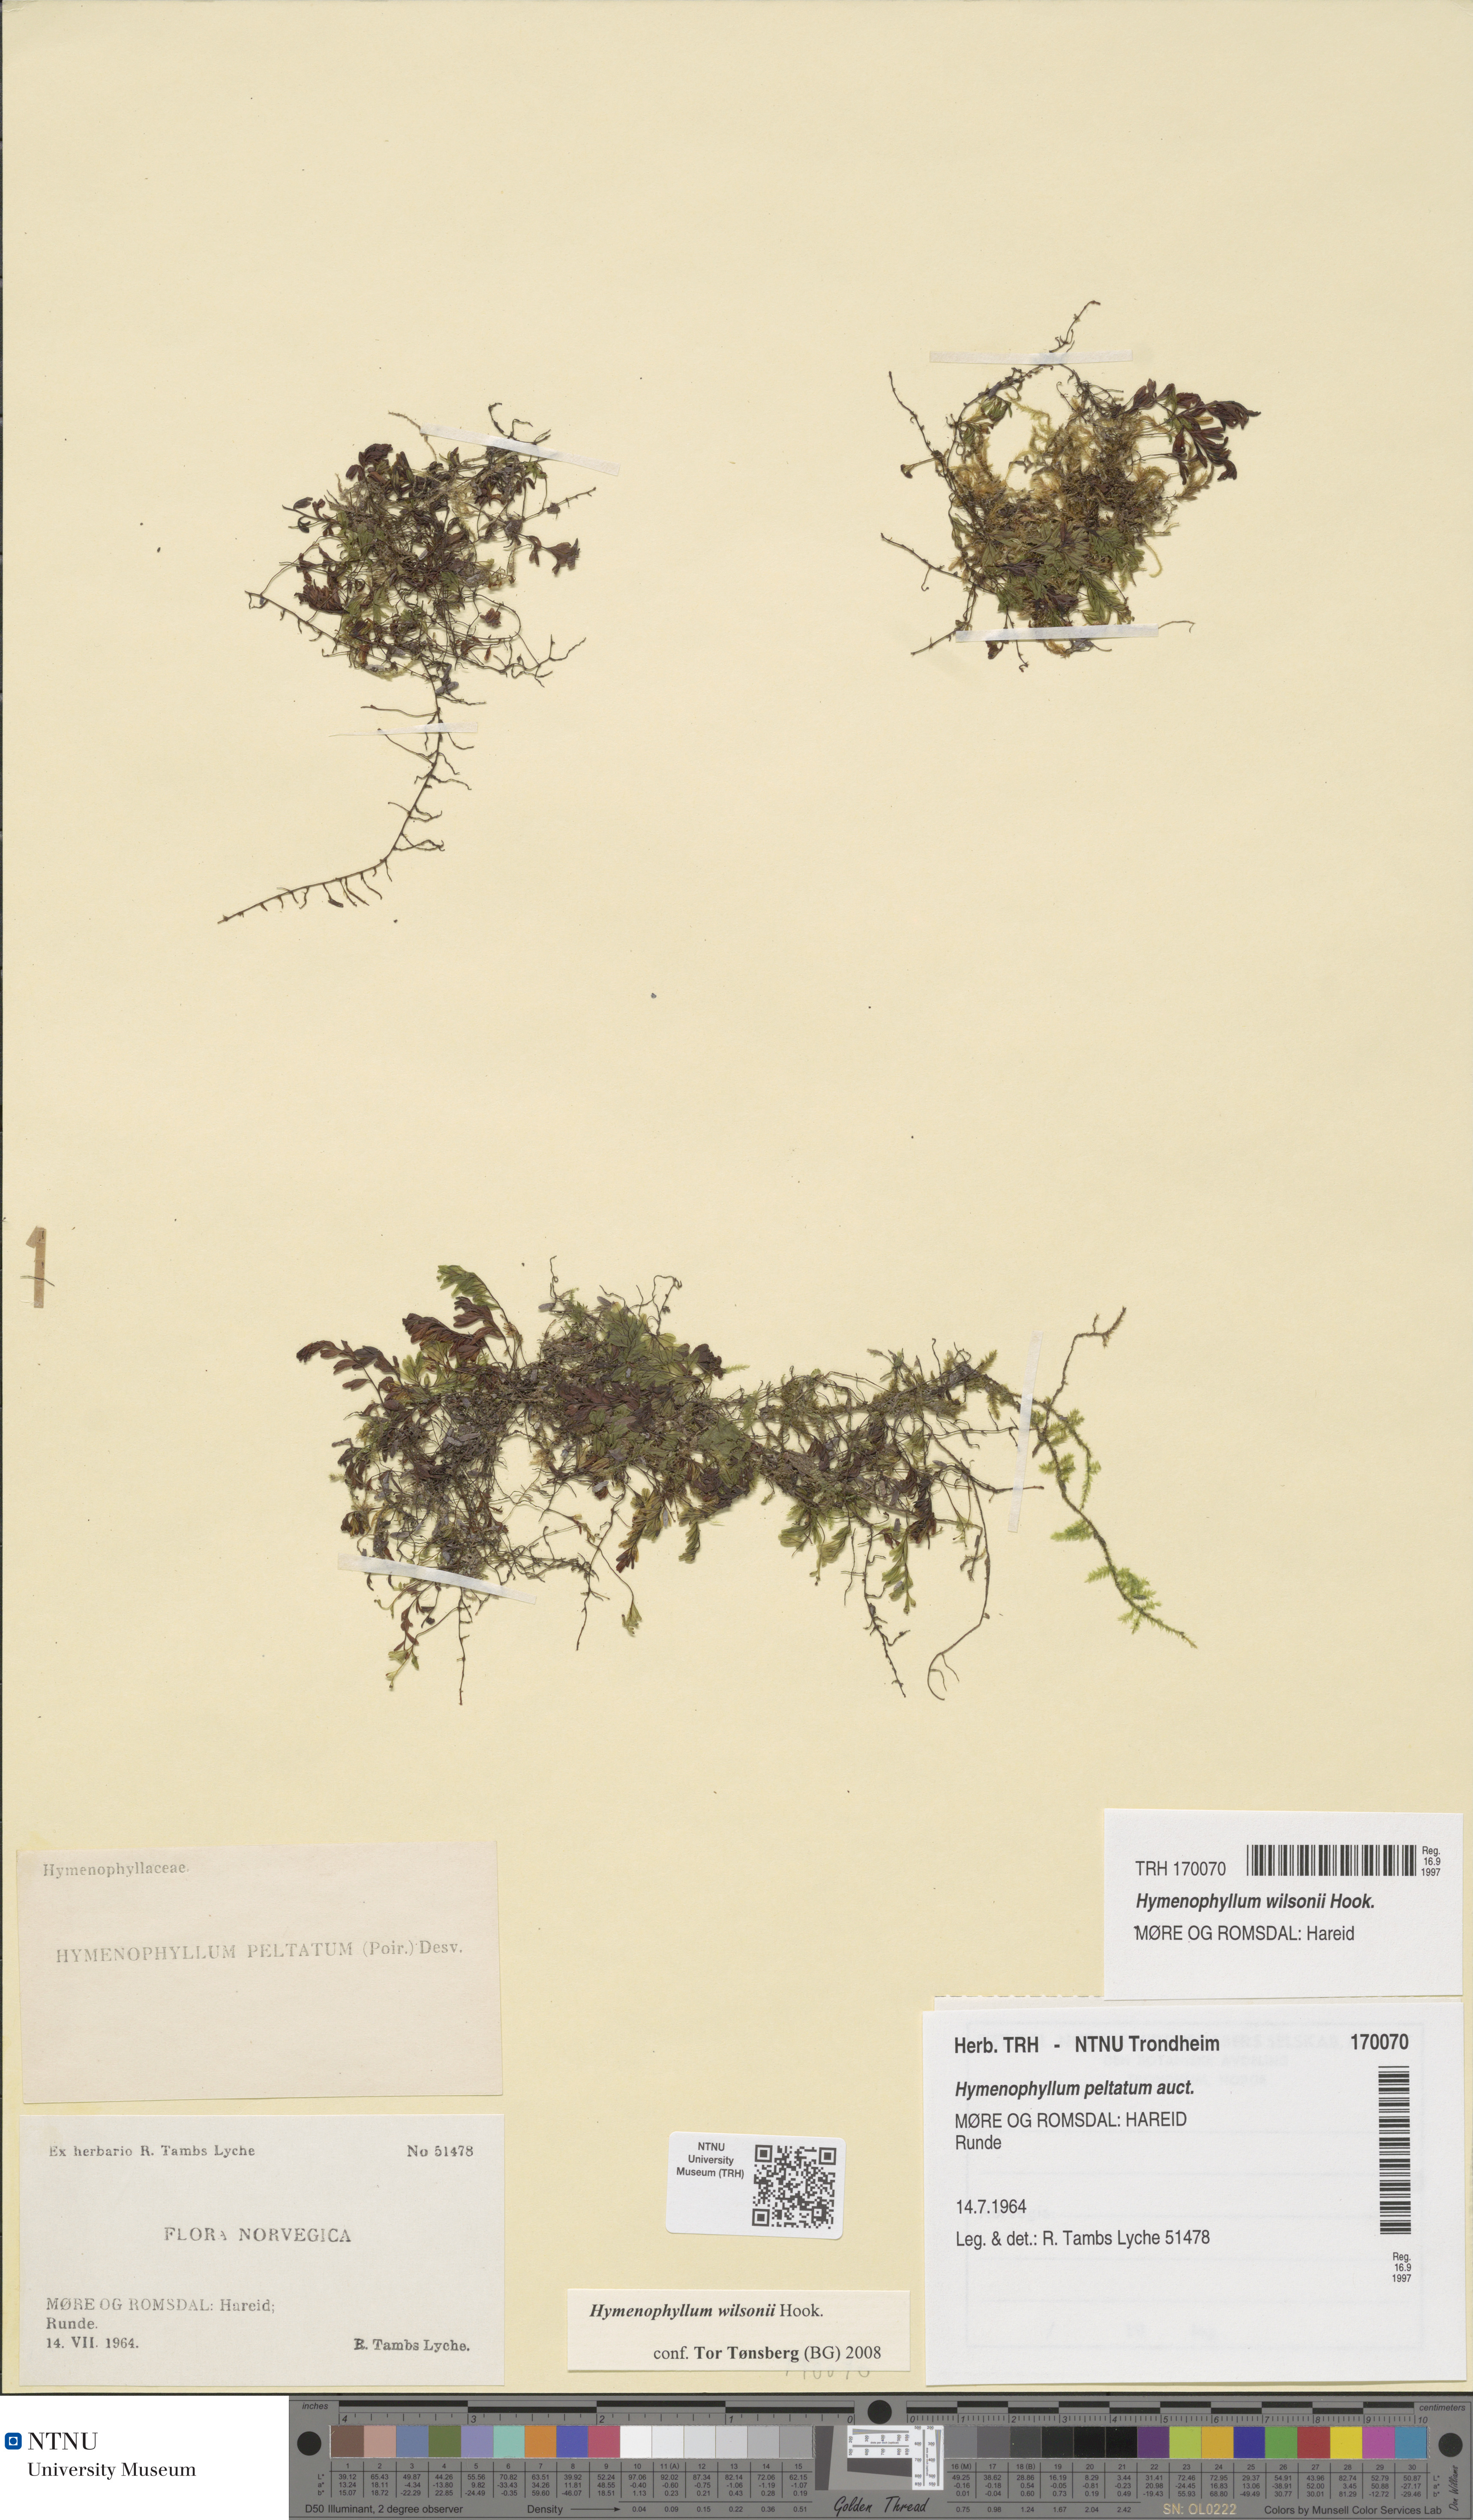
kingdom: Plantae
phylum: Tracheophyta
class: Polypodiopsida
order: Hymenophyllales
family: Hymenophyllaceae
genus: Hymenophyllum
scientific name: Hymenophyllum peltatum
